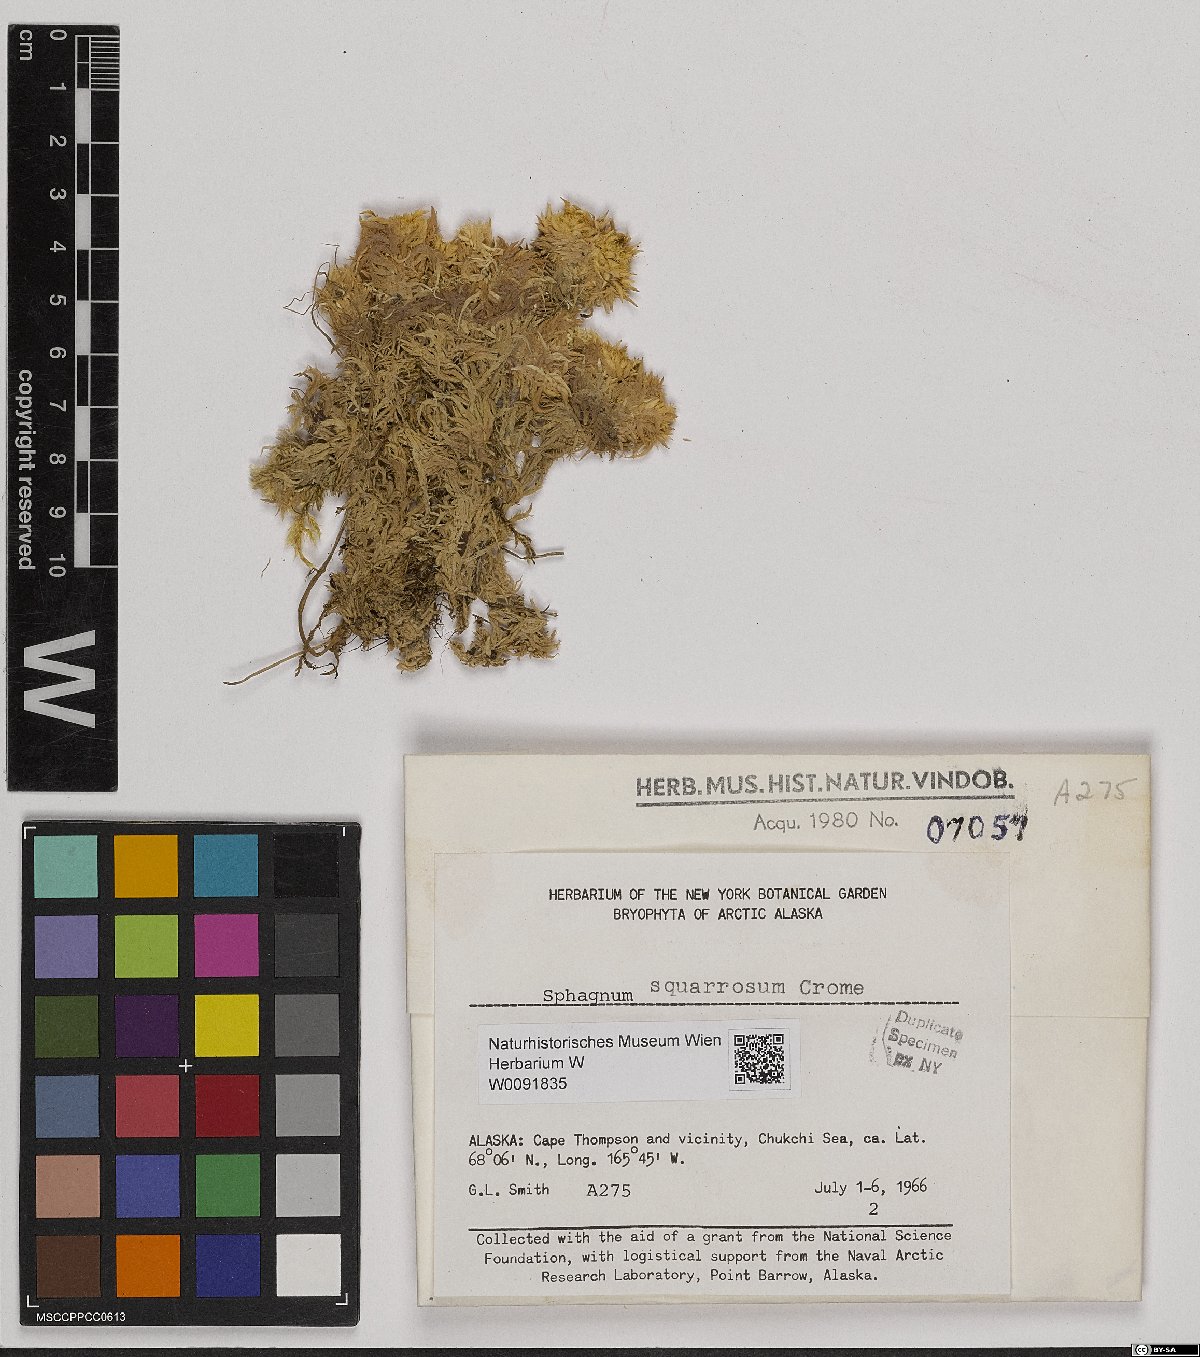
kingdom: Plantae
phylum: Bryophyta
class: Sphagnopsida
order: Sphagnales
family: Sphagnaceae
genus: Sphagnum
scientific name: Sphagnum squarrosum
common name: Shaggy peat moss
